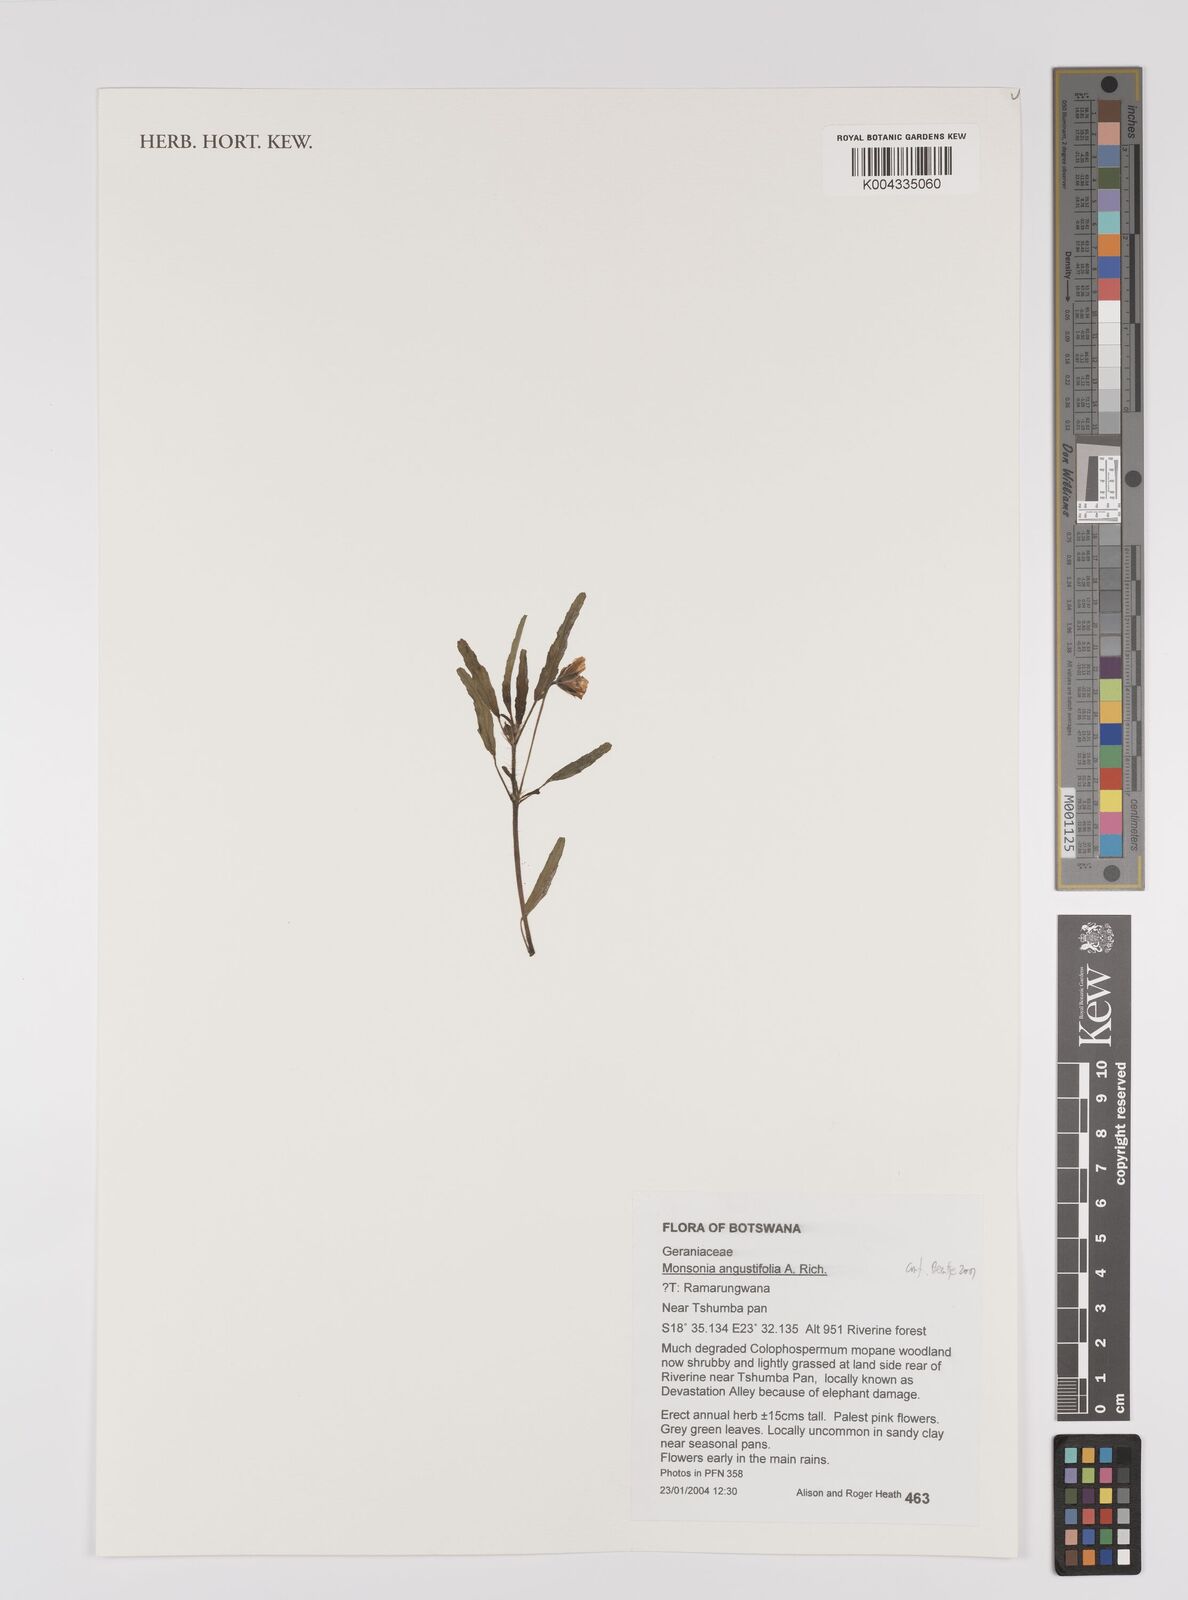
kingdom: Plantae
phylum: Tracheophyta
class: Magnoliopsida
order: Geraniales
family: Geraniaceae
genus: Monsonia
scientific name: Monsonia angustifolia
